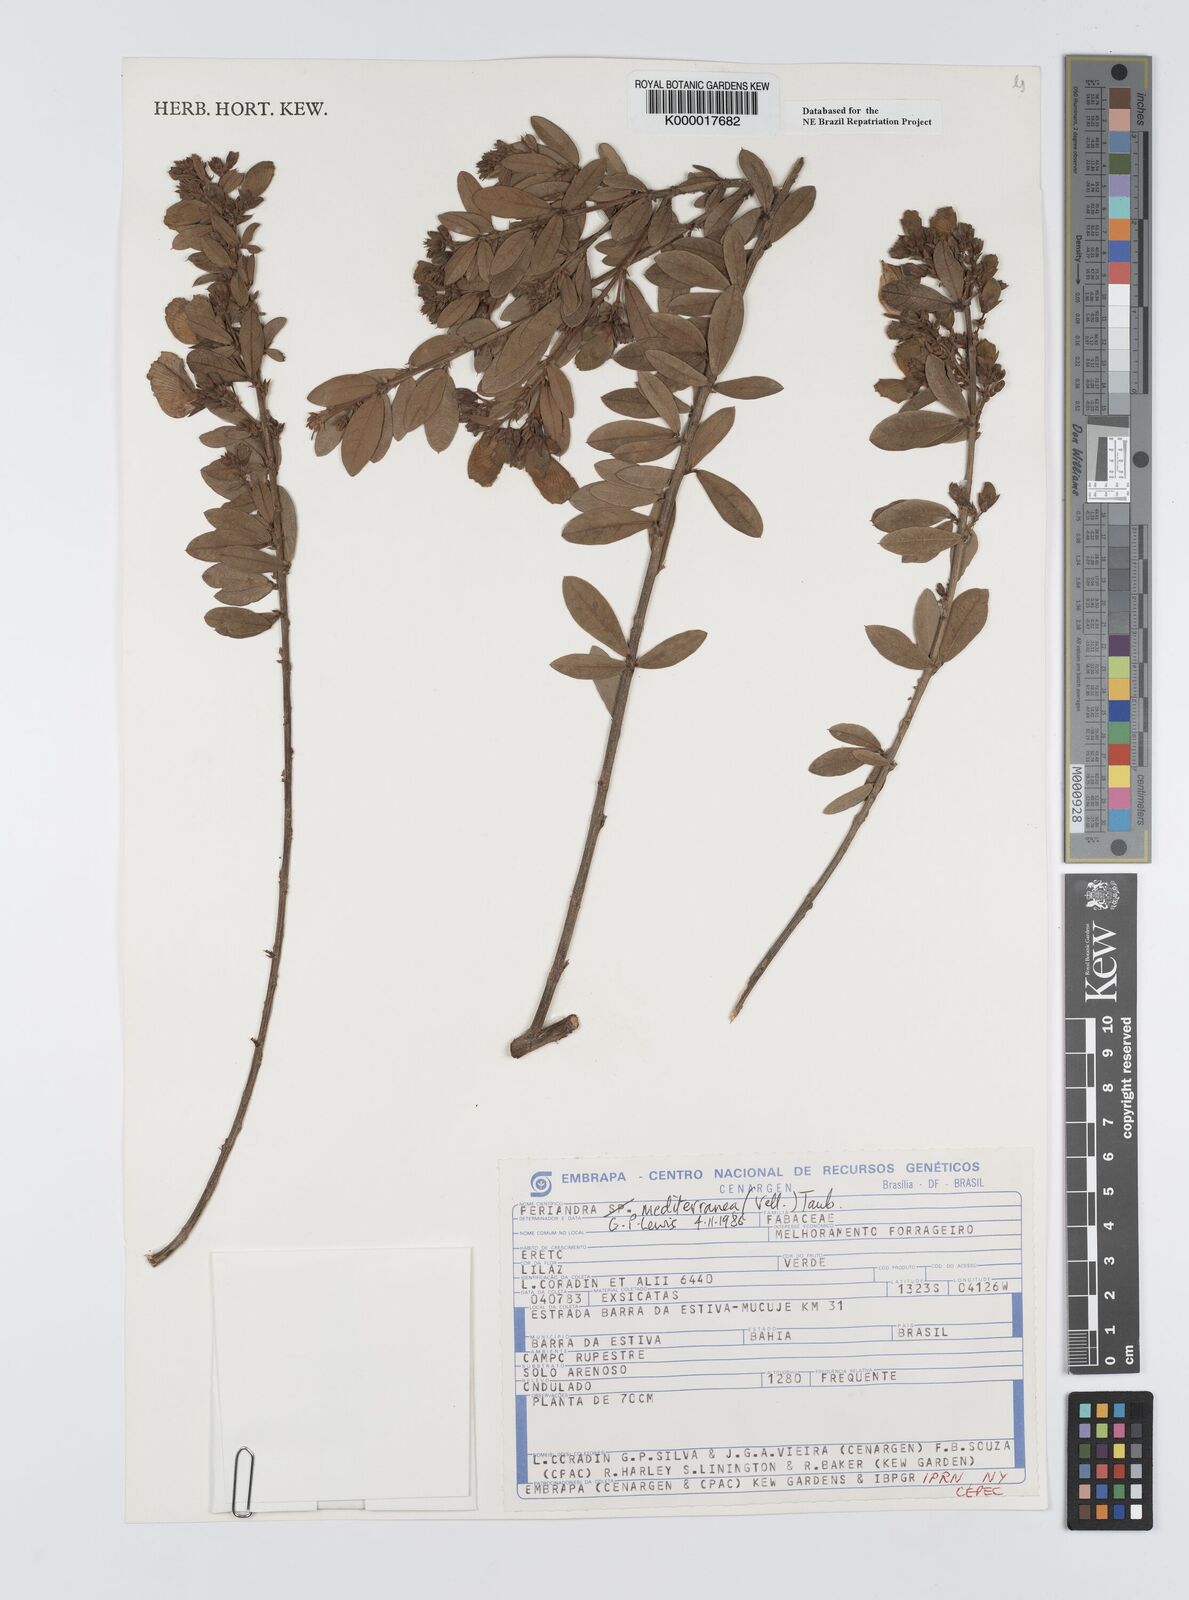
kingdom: Plantae
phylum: Tracheophyta
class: Magnoliopsida
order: Fabales
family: Fabaceae
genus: Periandra
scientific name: Periandra mediterranea
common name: Brazilian licorice
